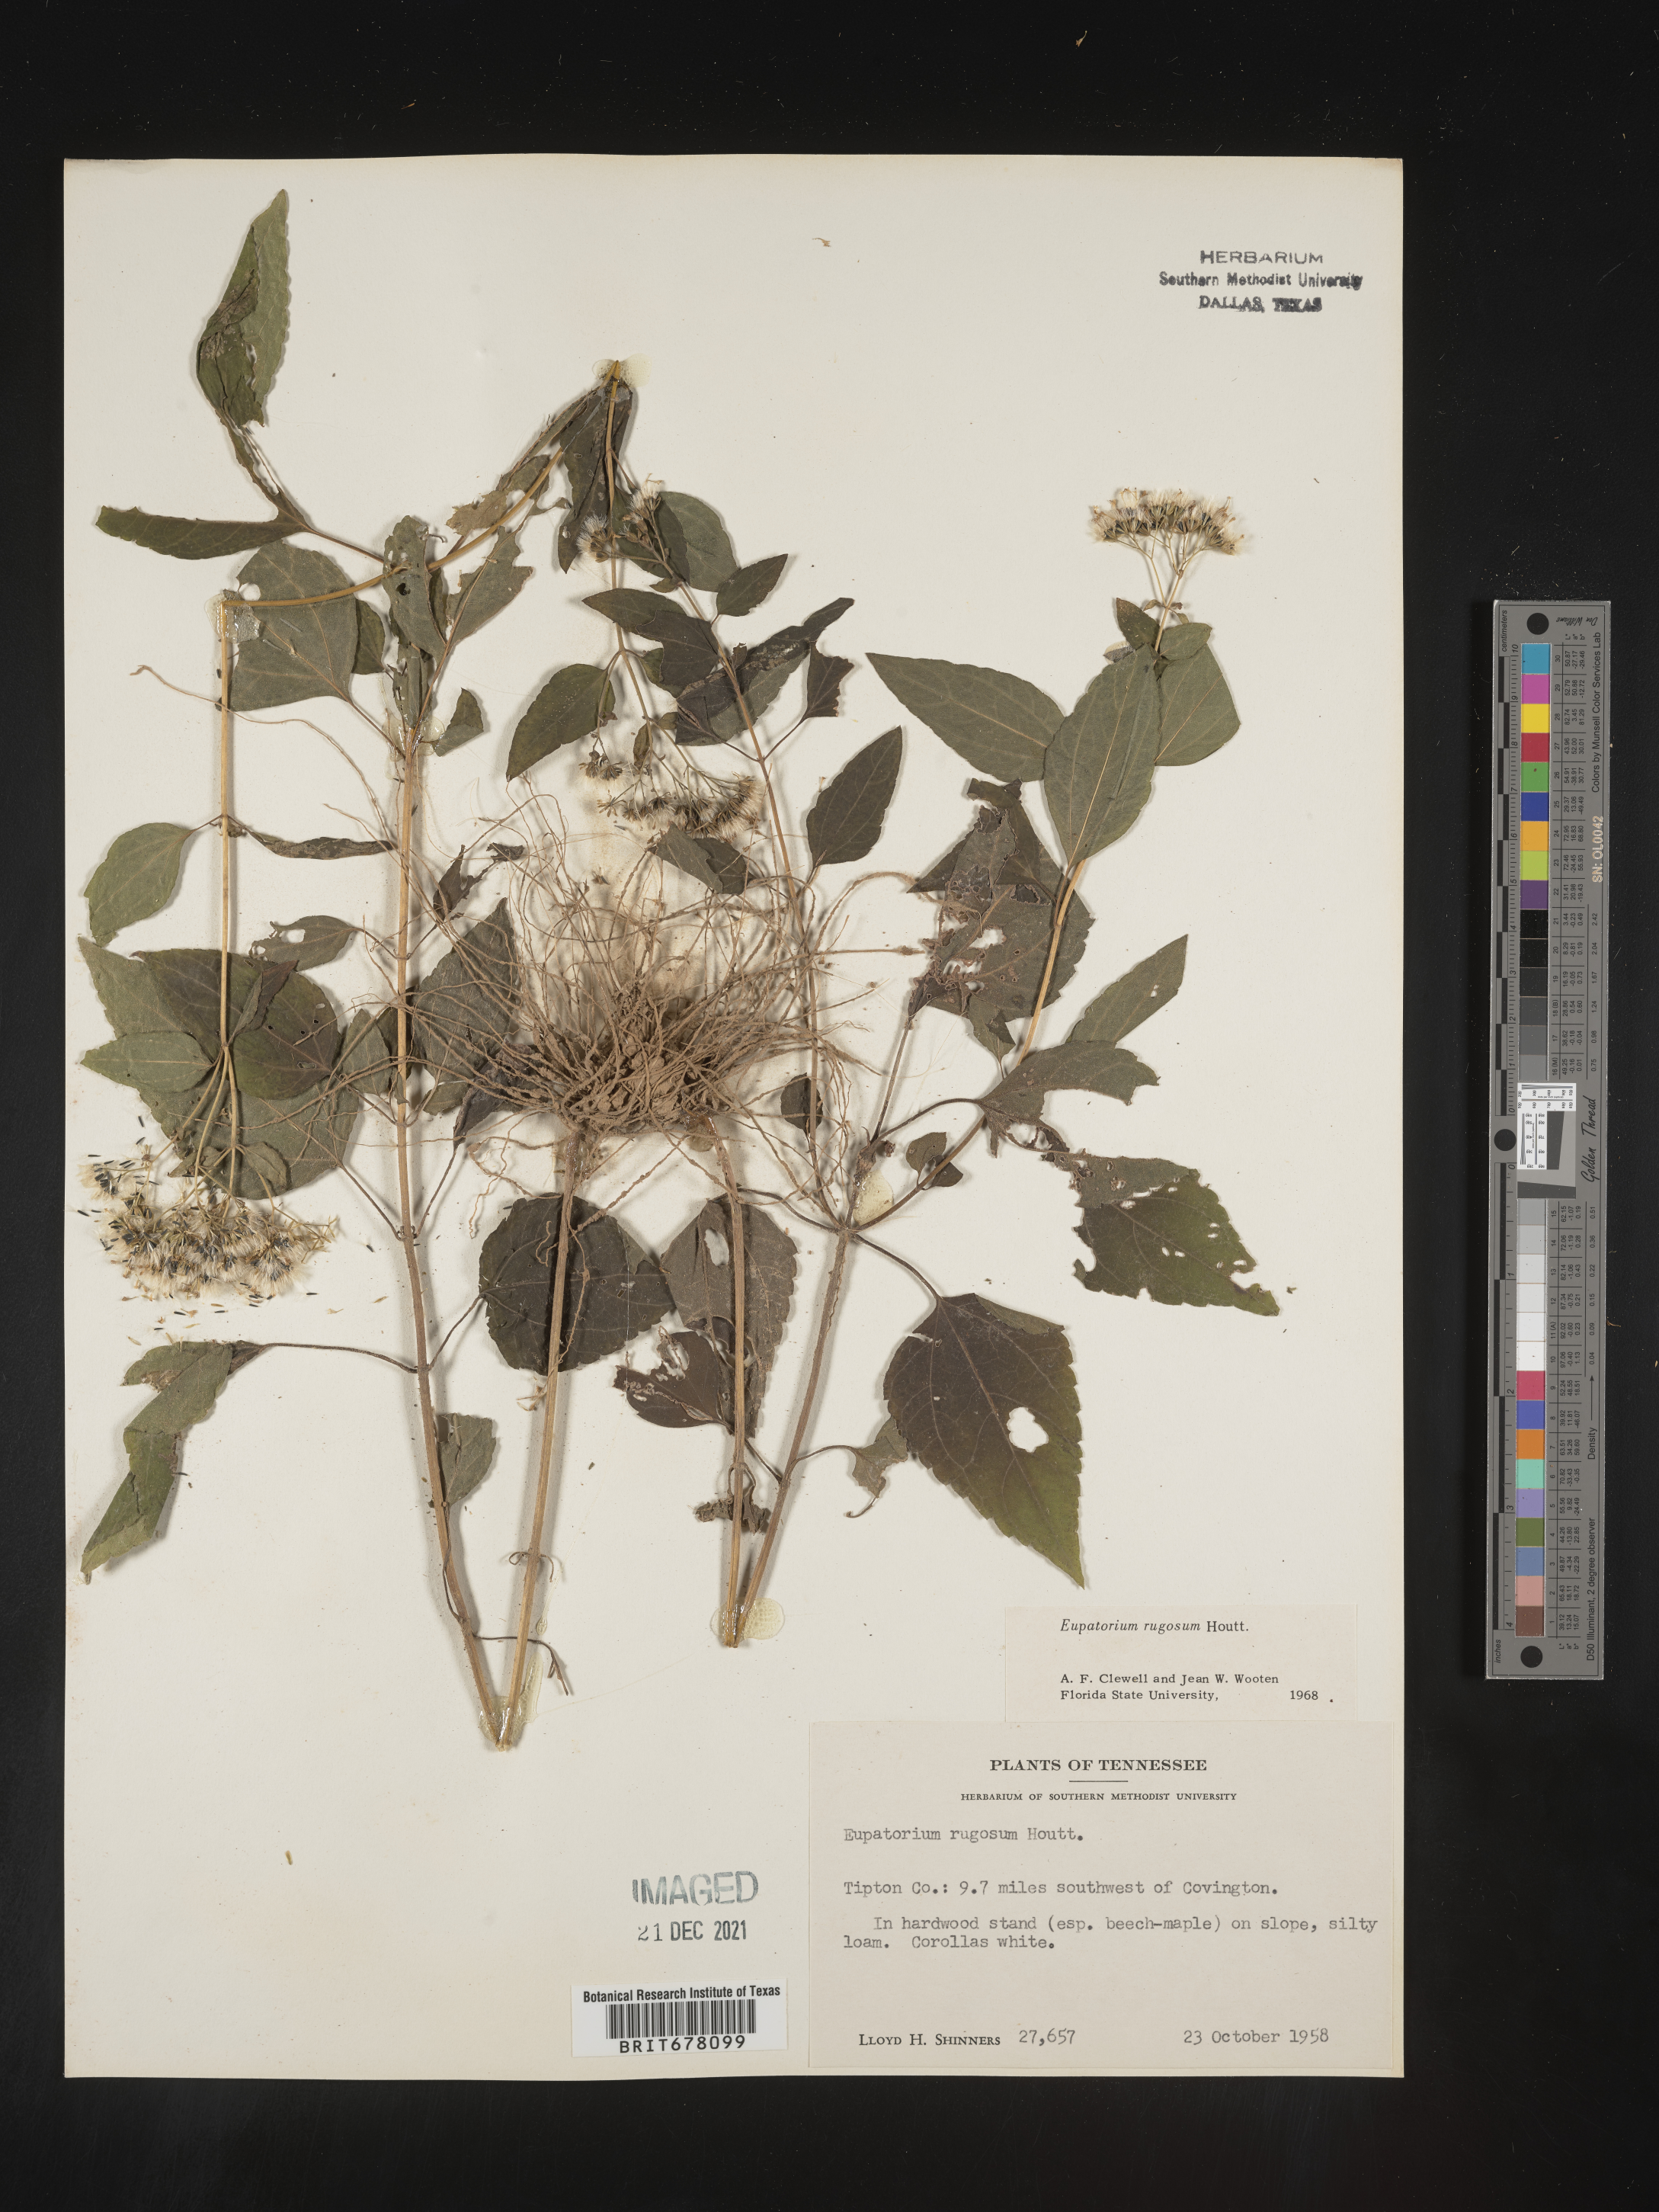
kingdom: Plantae
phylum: Tracheophyta
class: Magnoliopsida
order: Asterales
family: Asteraceae
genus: Eupatorium
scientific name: Eupatorium
